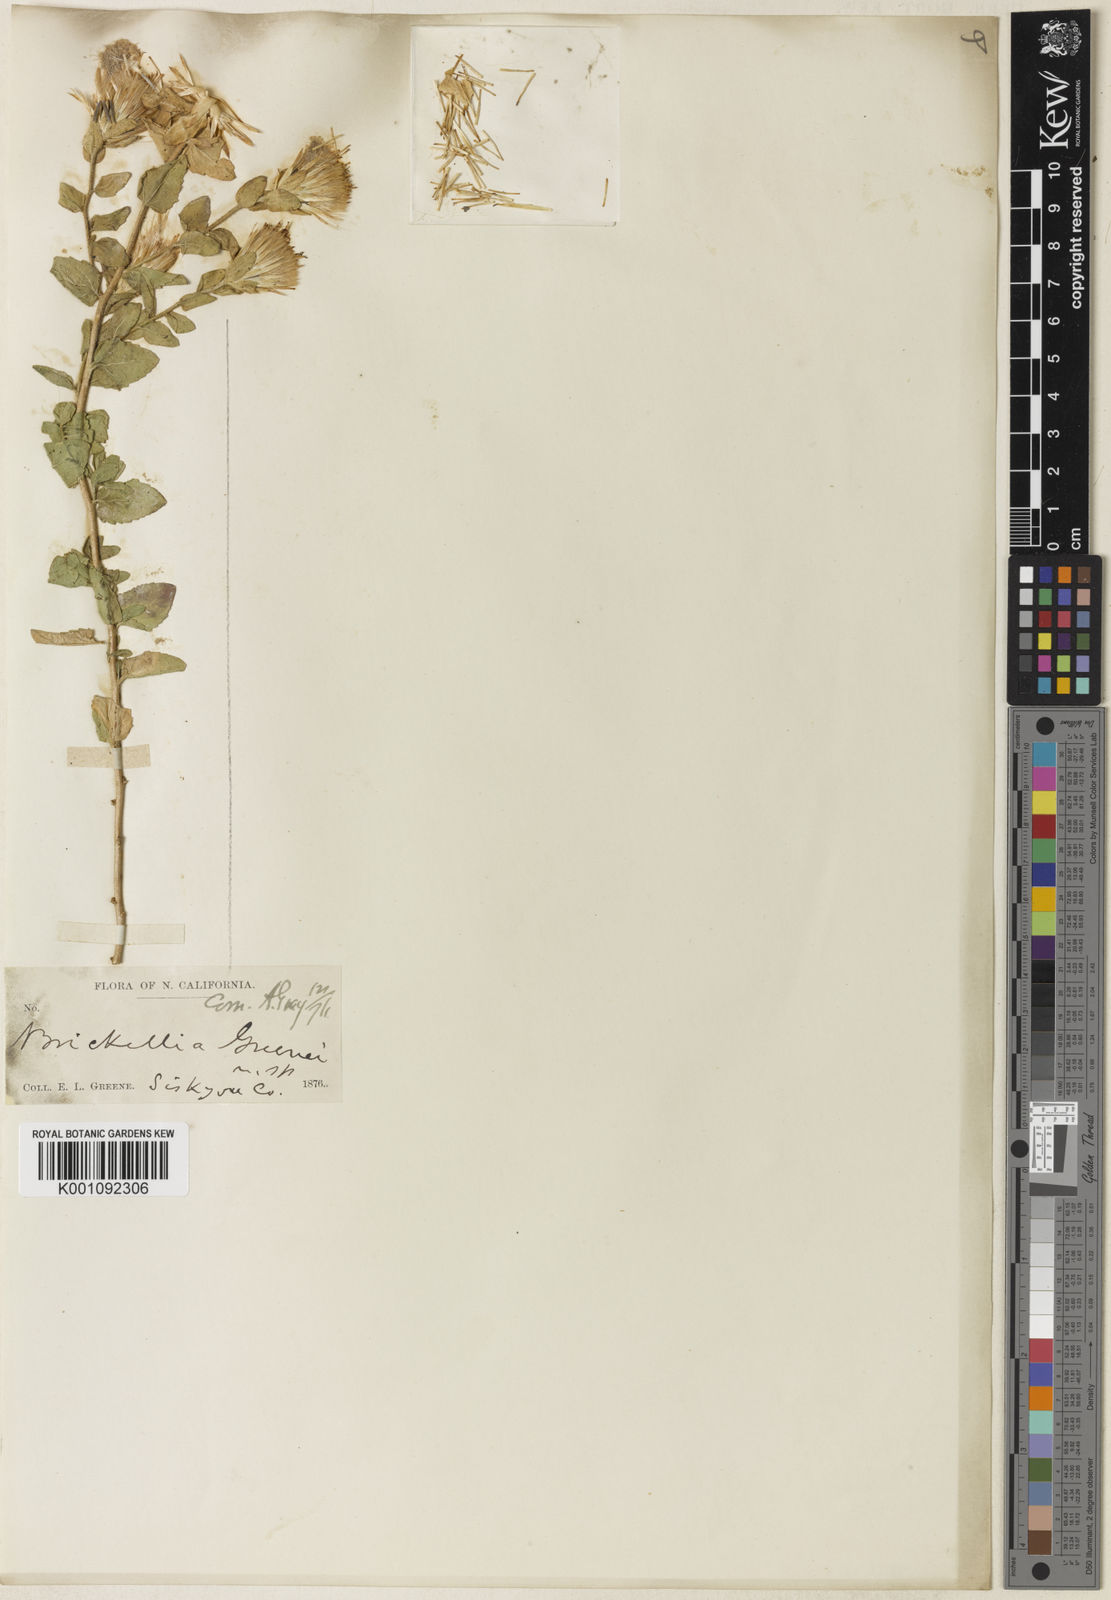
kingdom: Plantae
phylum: Tracheophyta
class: Magnoliopsida
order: Asterales
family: Asteraceae
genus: Brickellia
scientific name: Brickellia greenei
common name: Greene's brickellbush
